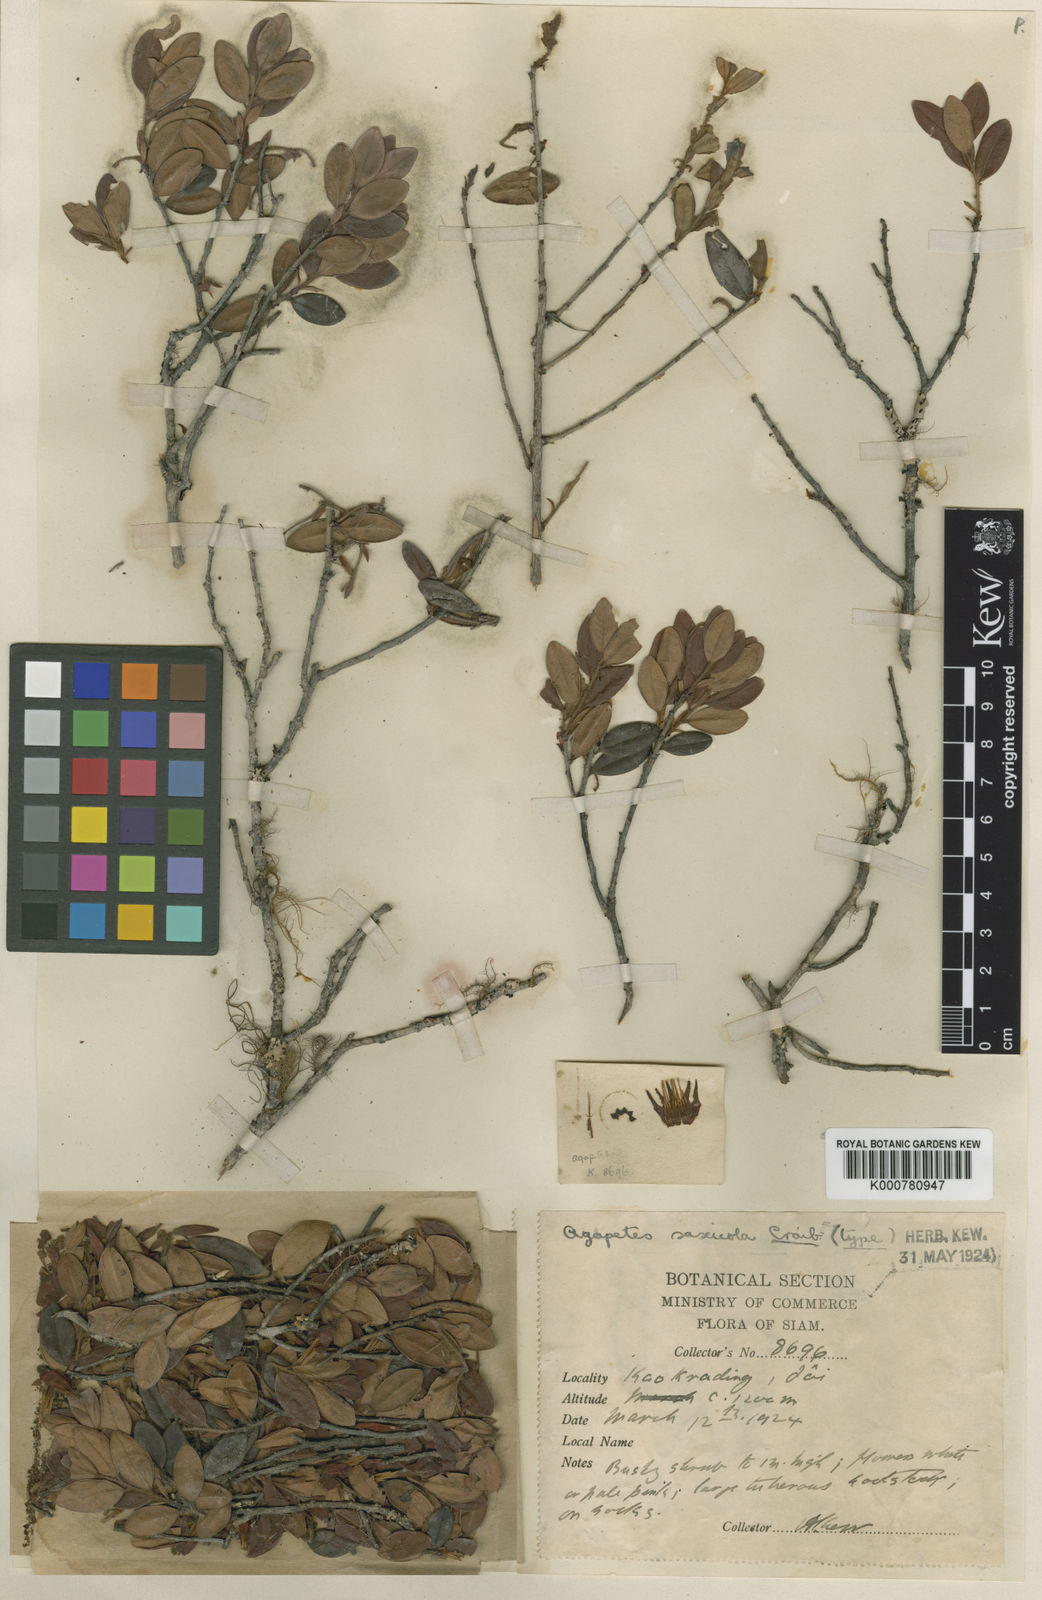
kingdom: Plantae
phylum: Tracheophyta
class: Magnoliopsida
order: Ericales
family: Ericaceae
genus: Agapetes
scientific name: Agapetes
